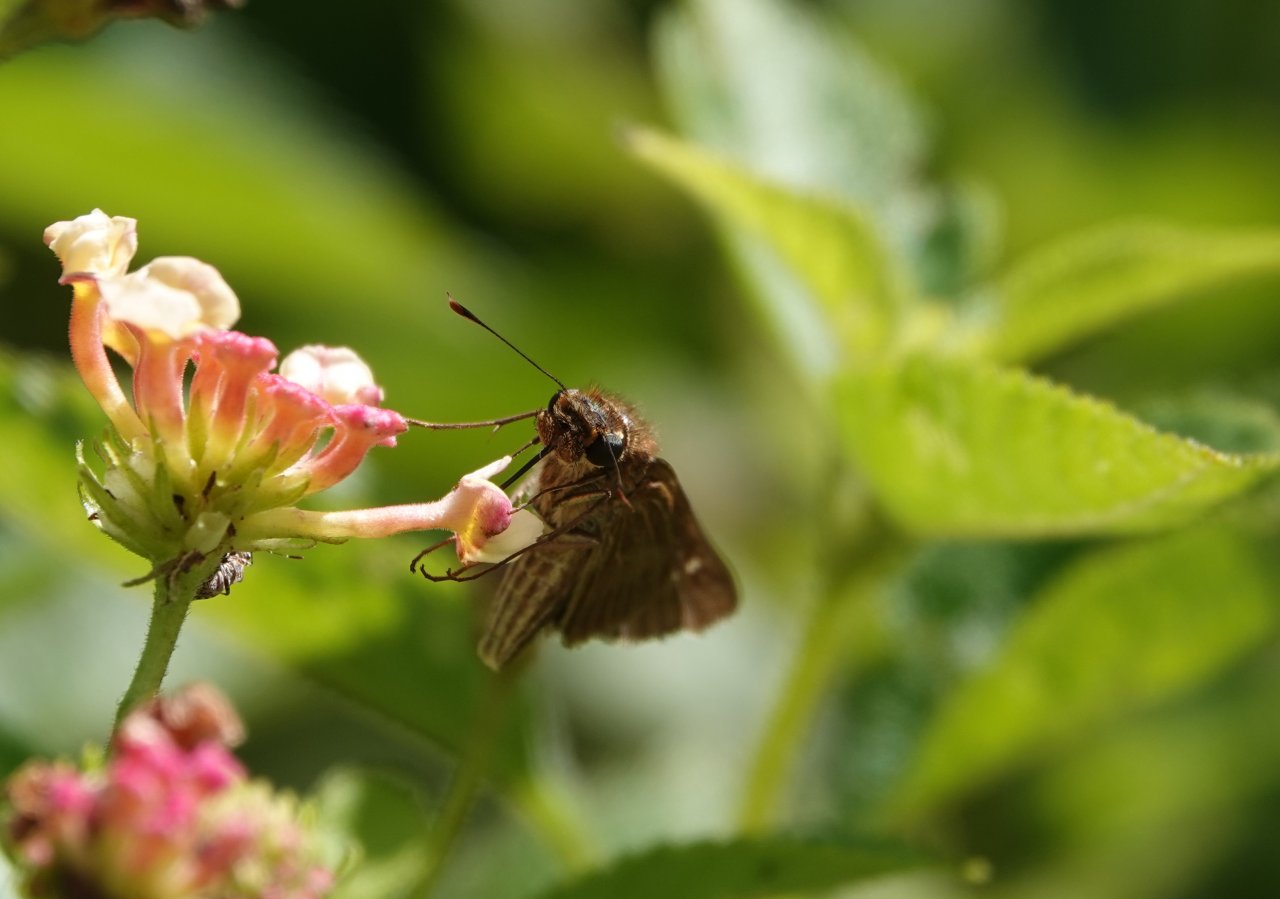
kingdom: Animalia
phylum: Arthropoda
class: Insecta
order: Lepidoptera
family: Hesperiidae
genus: Panoquina
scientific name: Panoquina ocola
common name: Ocola Skipper
